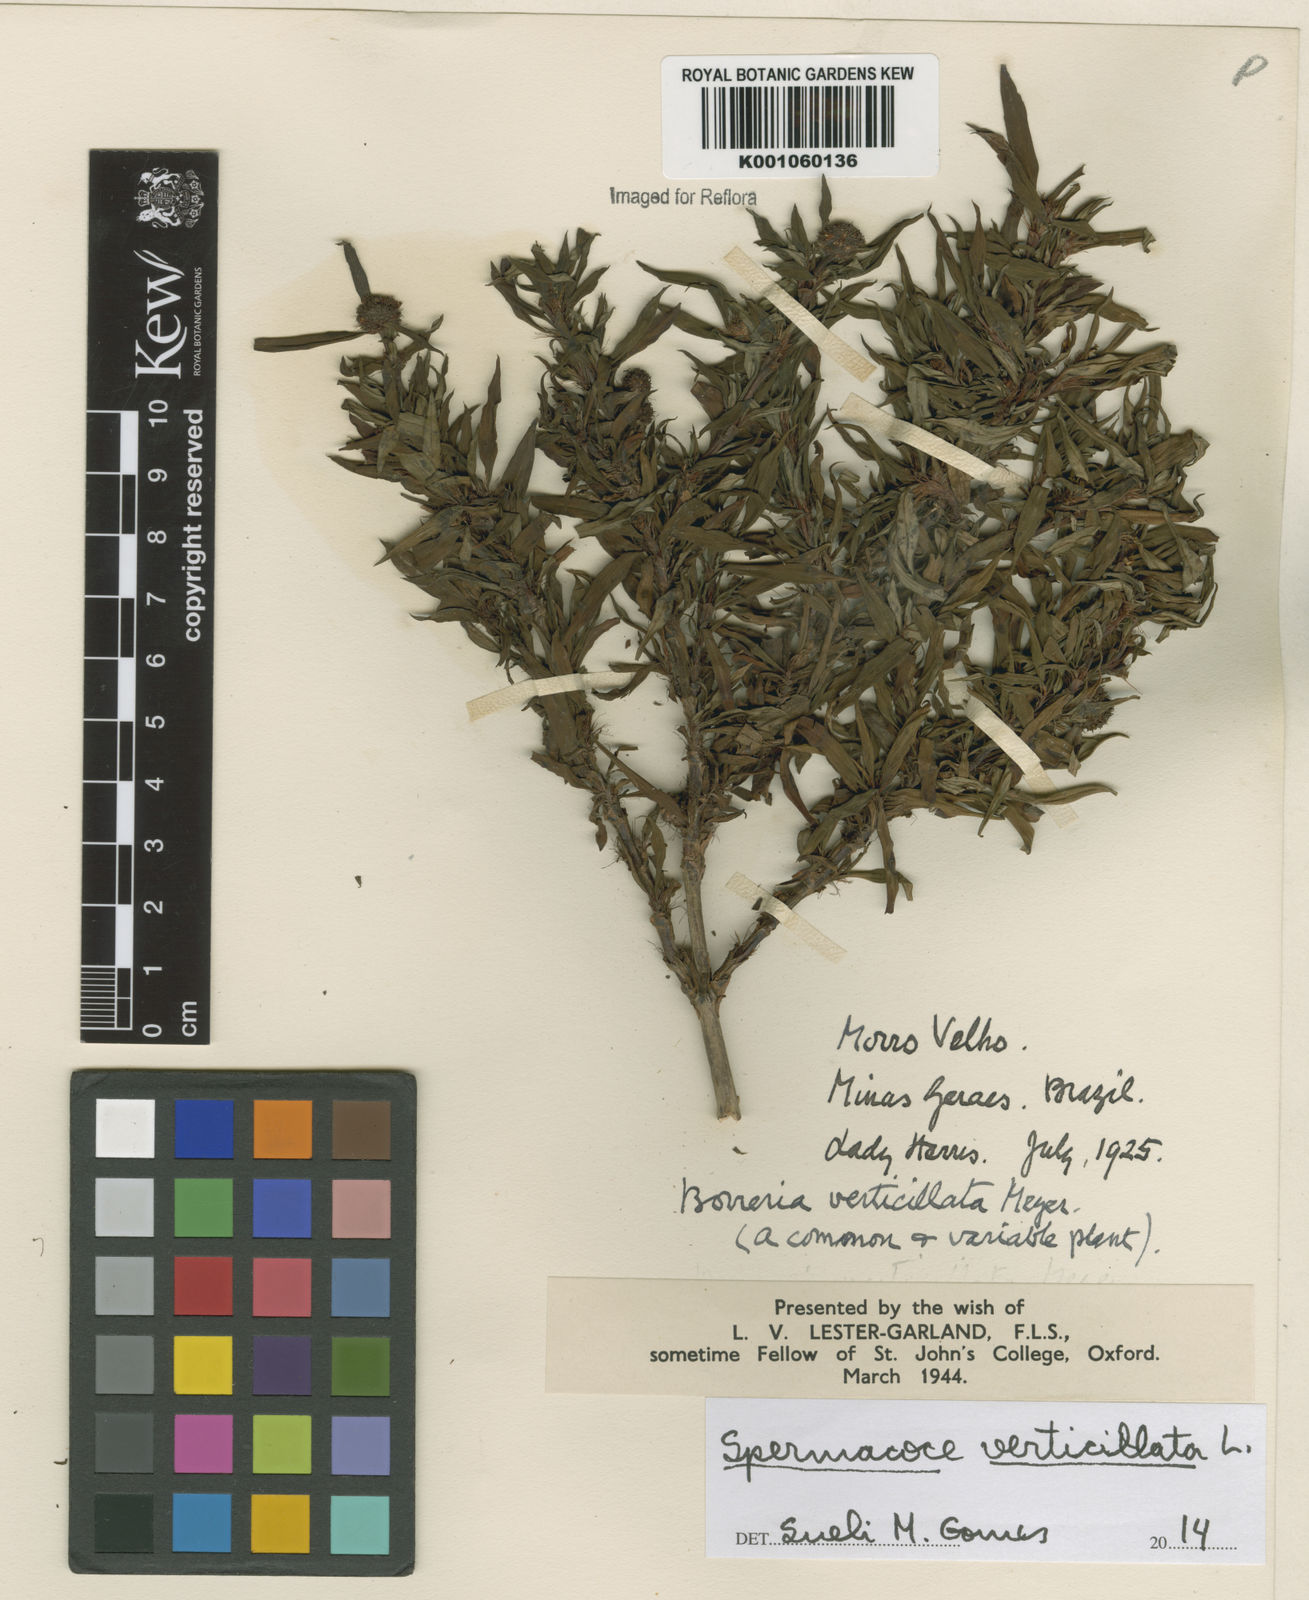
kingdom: Plantae
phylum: Tracheophyta
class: Magnoliopsida
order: Gentianales
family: Rubiaceae
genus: Spermacoce
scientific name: Spermacoce verticillata
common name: Shrubby false buttonweed
